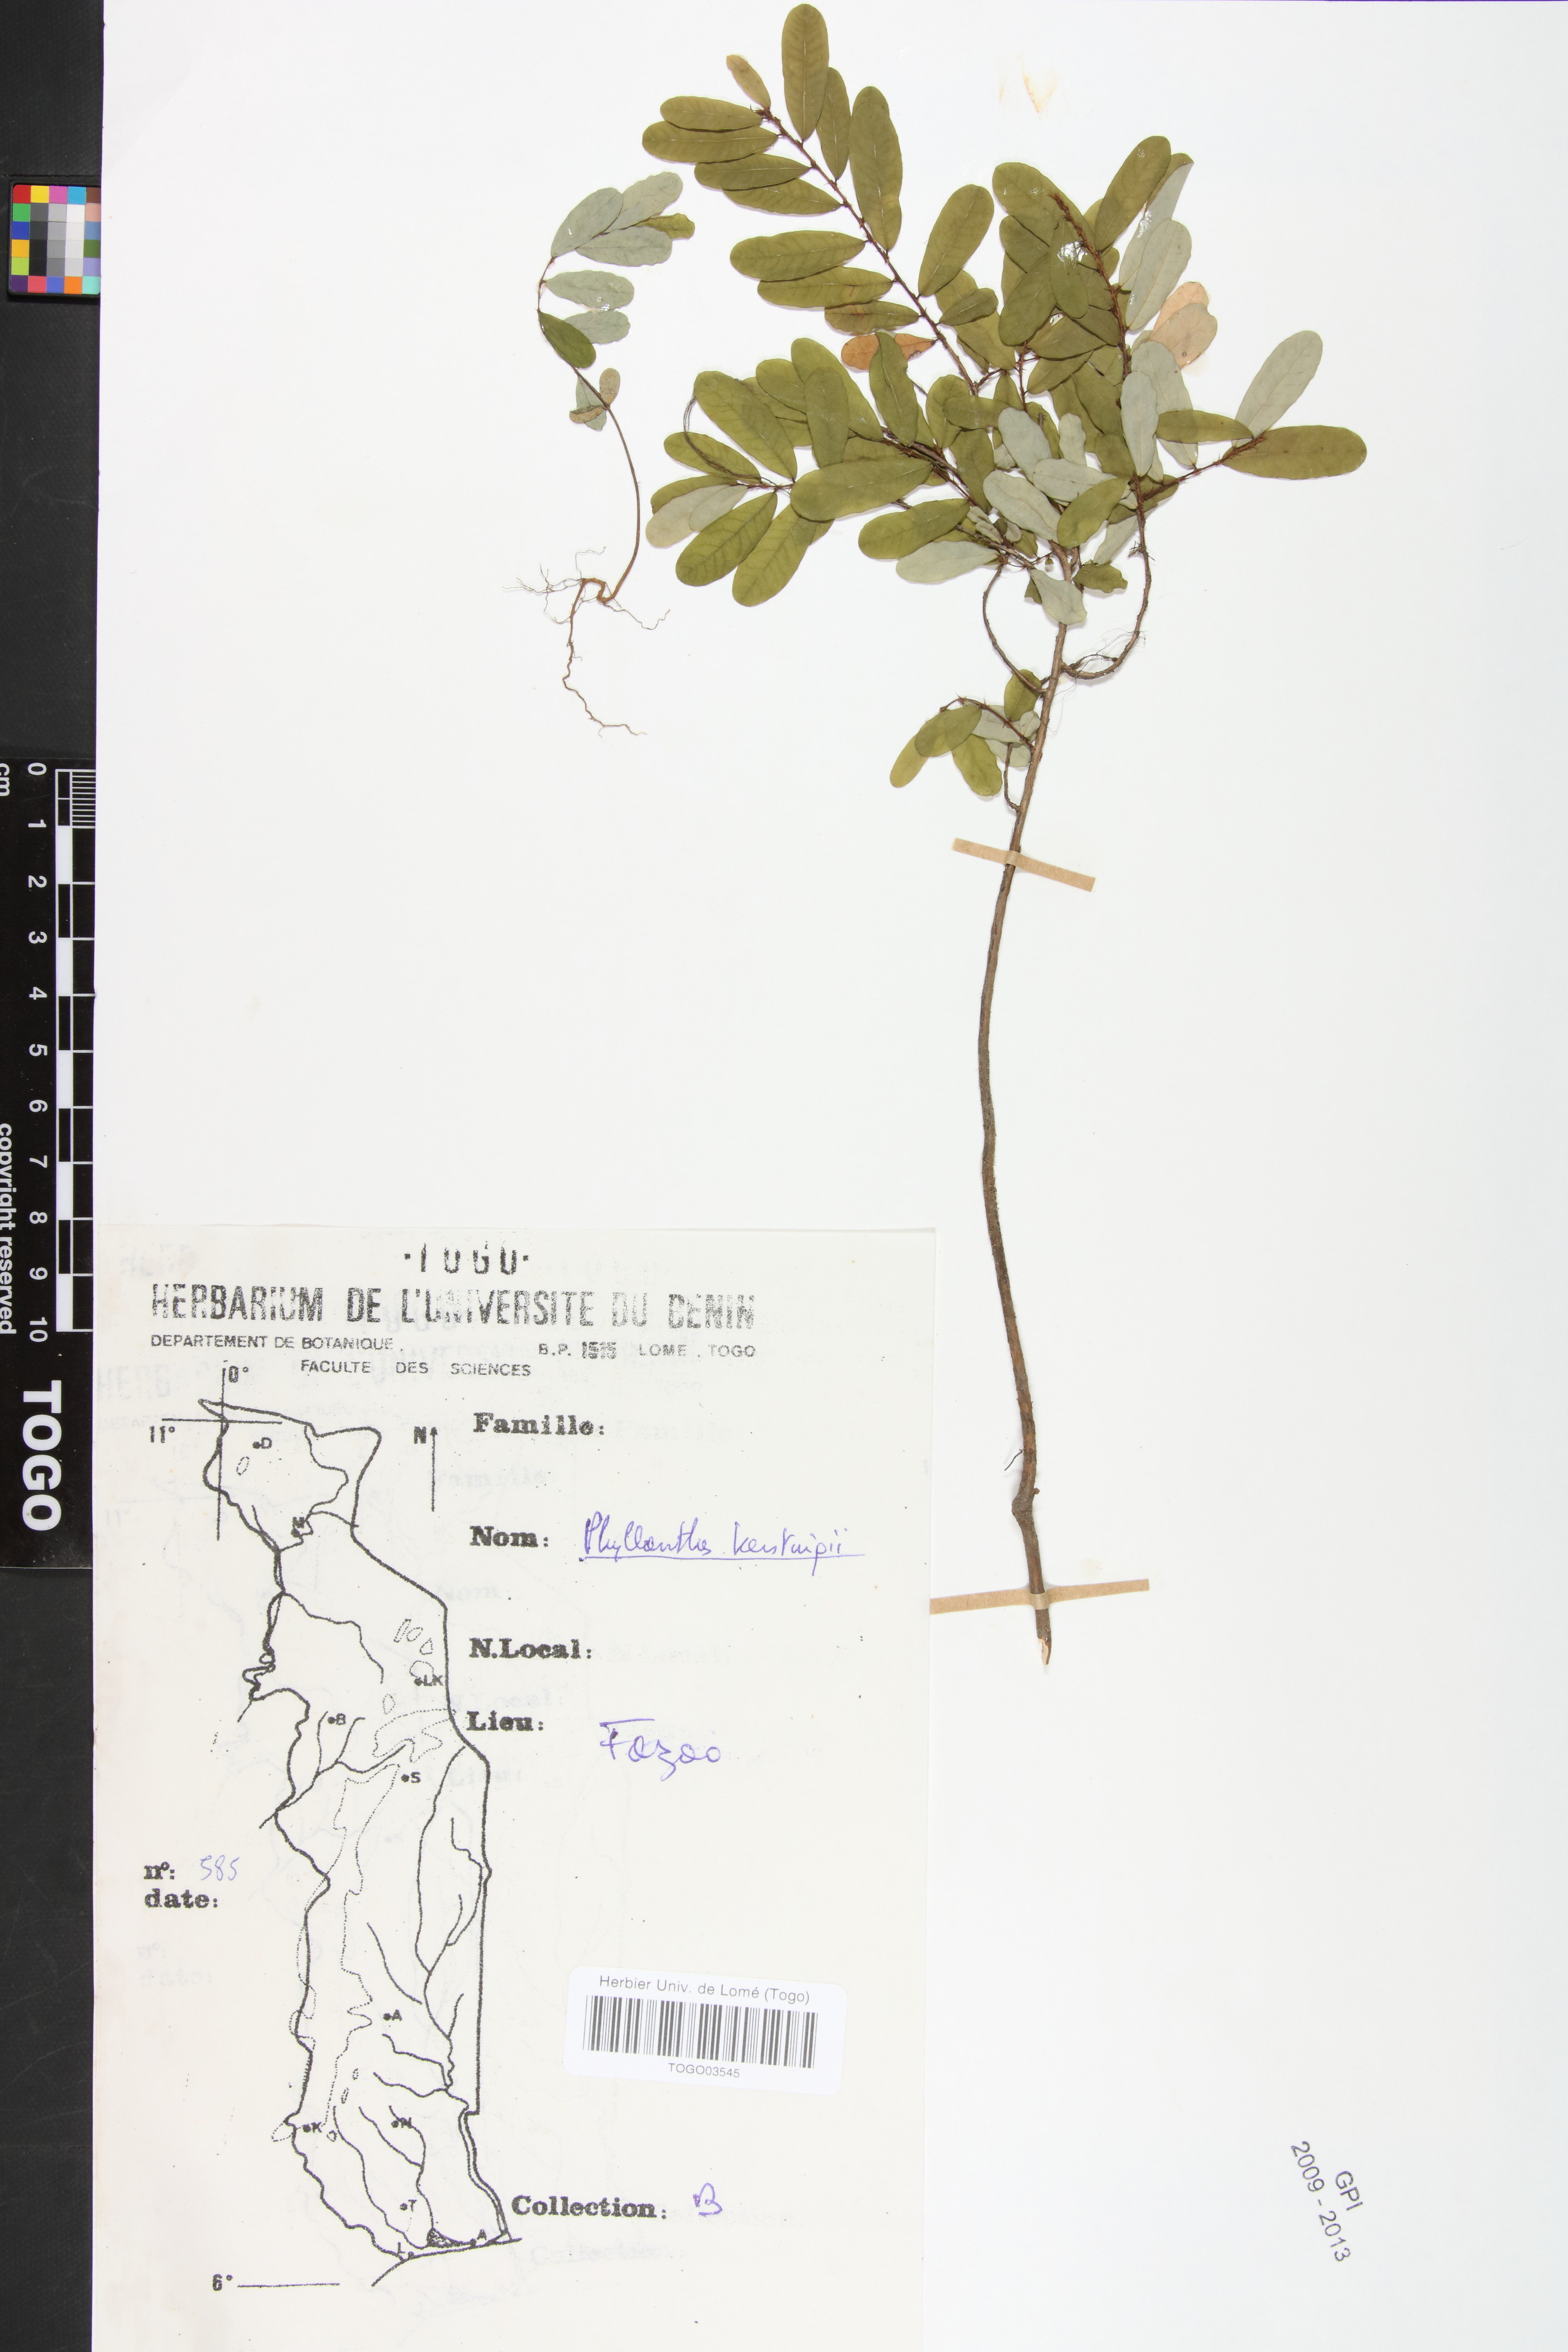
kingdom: Plantae
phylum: Tracheophyta
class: Magnoliopsida
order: Malpighiales
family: Phyllanthaceae
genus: Phyllanthus
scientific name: Phyllanthus kerstingii
